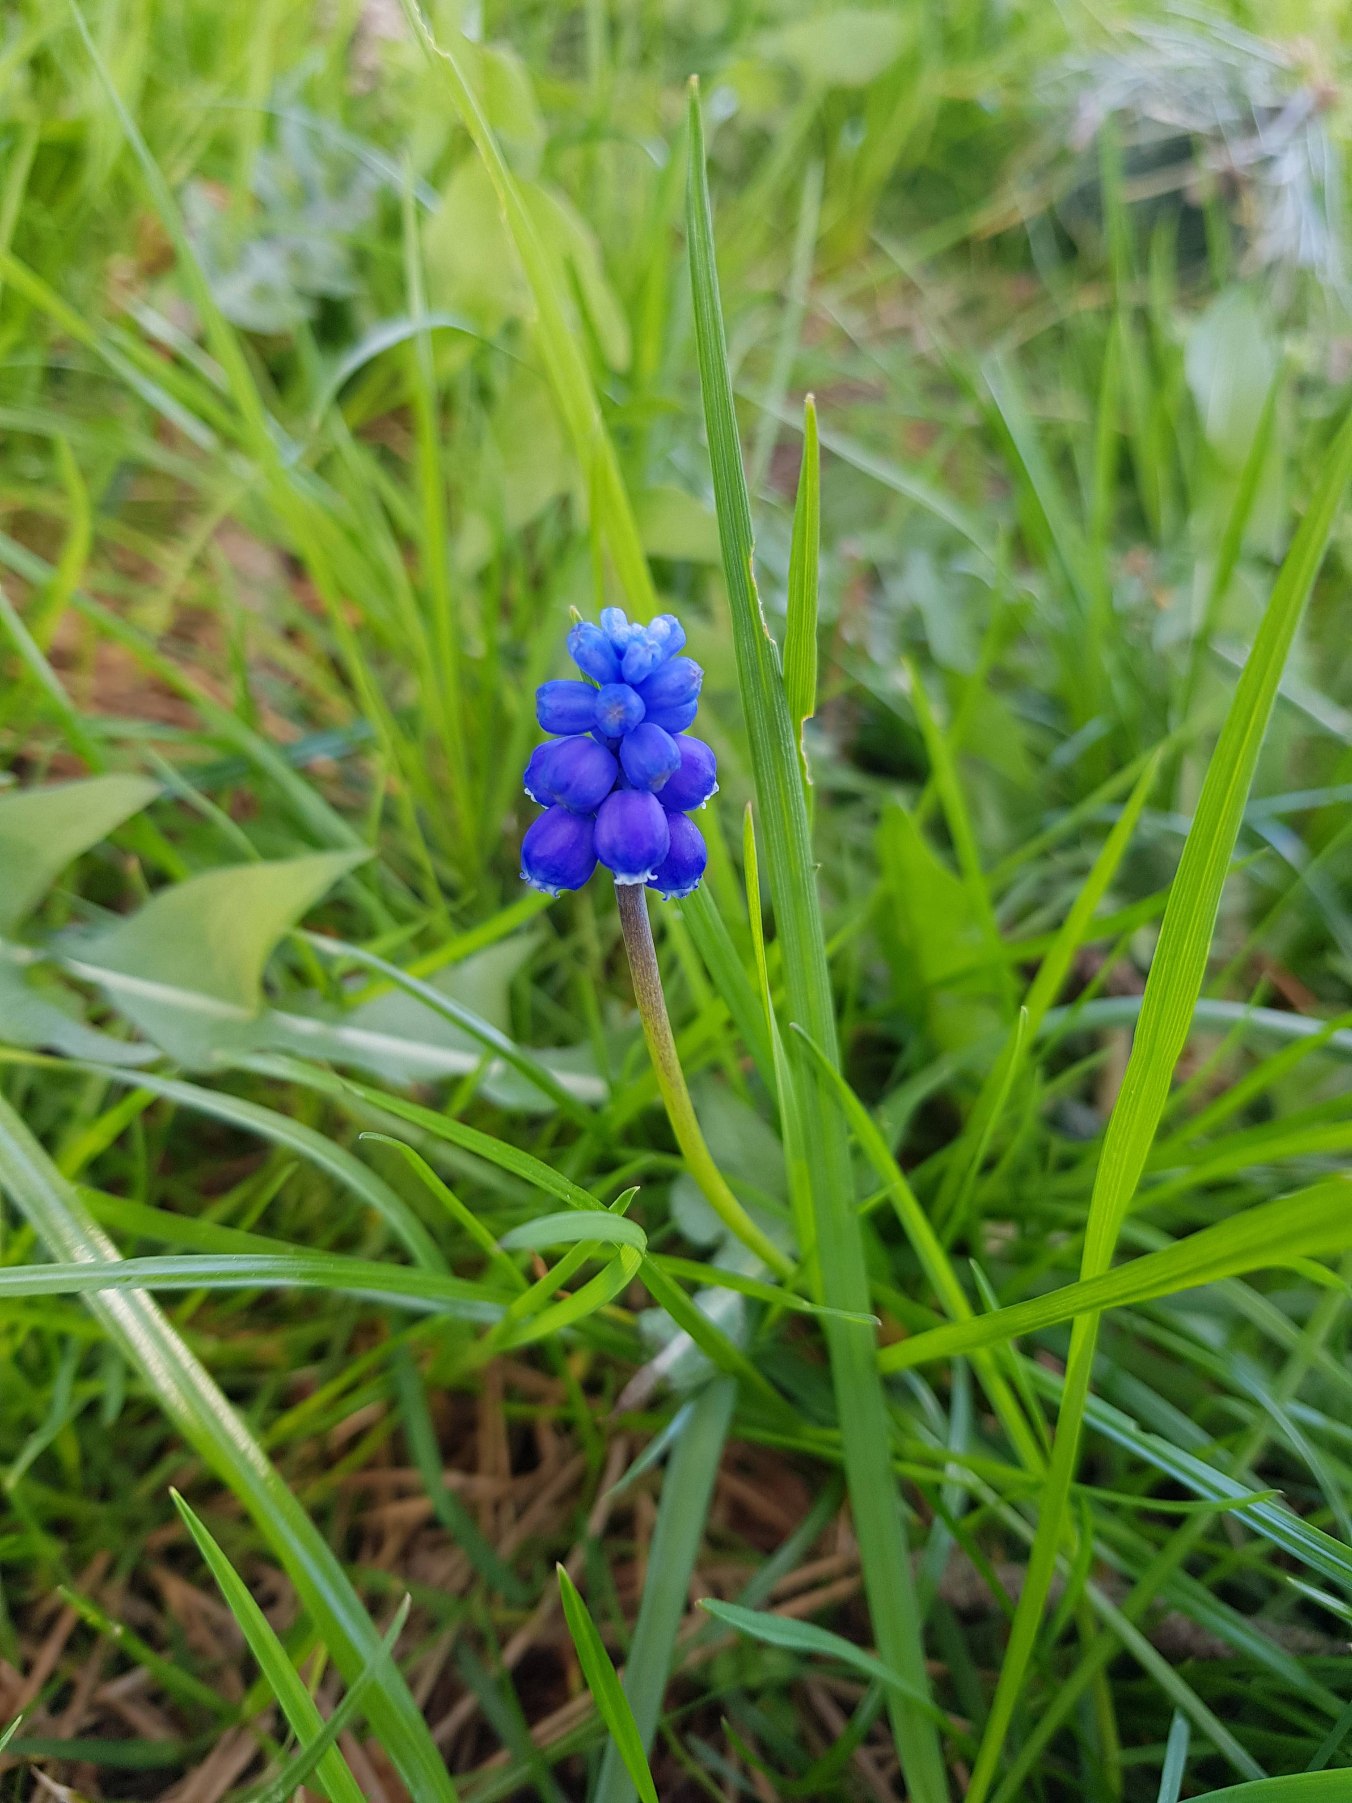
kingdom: Plantae
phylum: Tracheophyta
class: Liliopsida
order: Asparagales
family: Asparagaceae
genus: Muscari
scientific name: Muscari armeniacum
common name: Armensk perlehyacint
